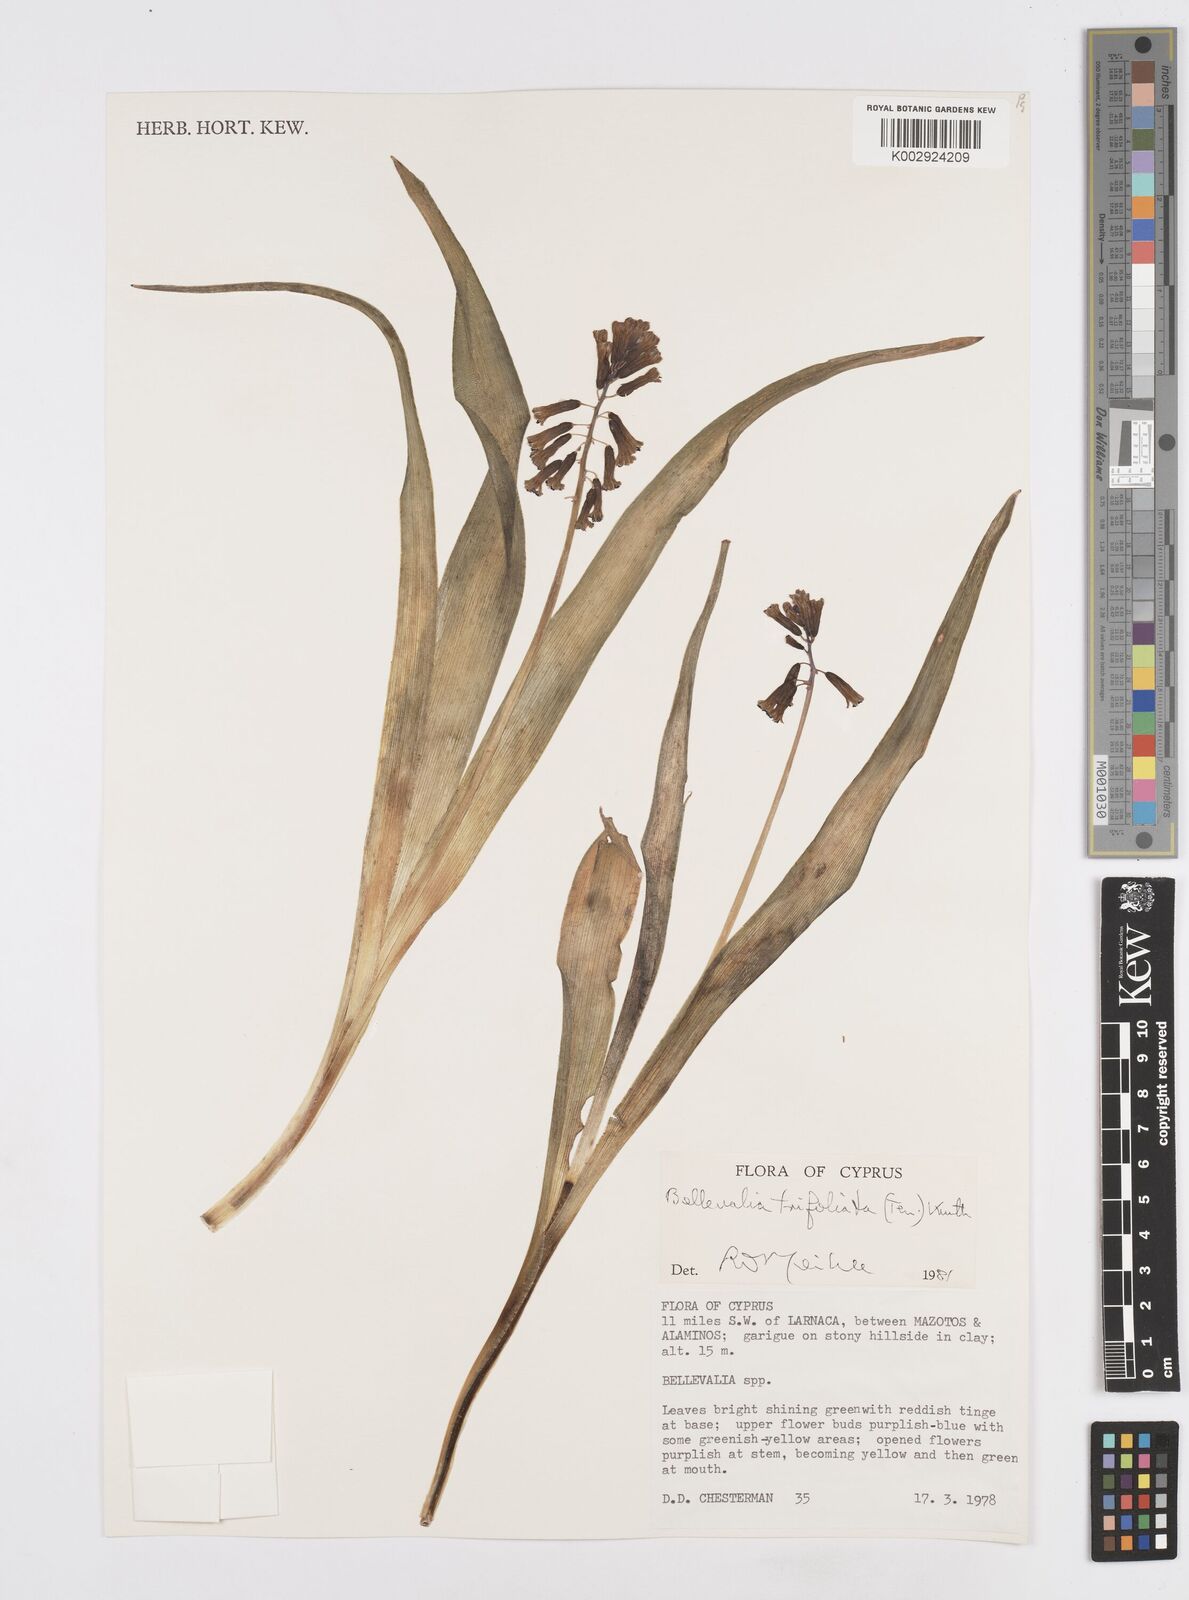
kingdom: Plantae
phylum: Tracheophyta
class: Liliopsida
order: Asparagales
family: Asparagaceae
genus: Bellevalia
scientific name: Bellevalia trifoliata
